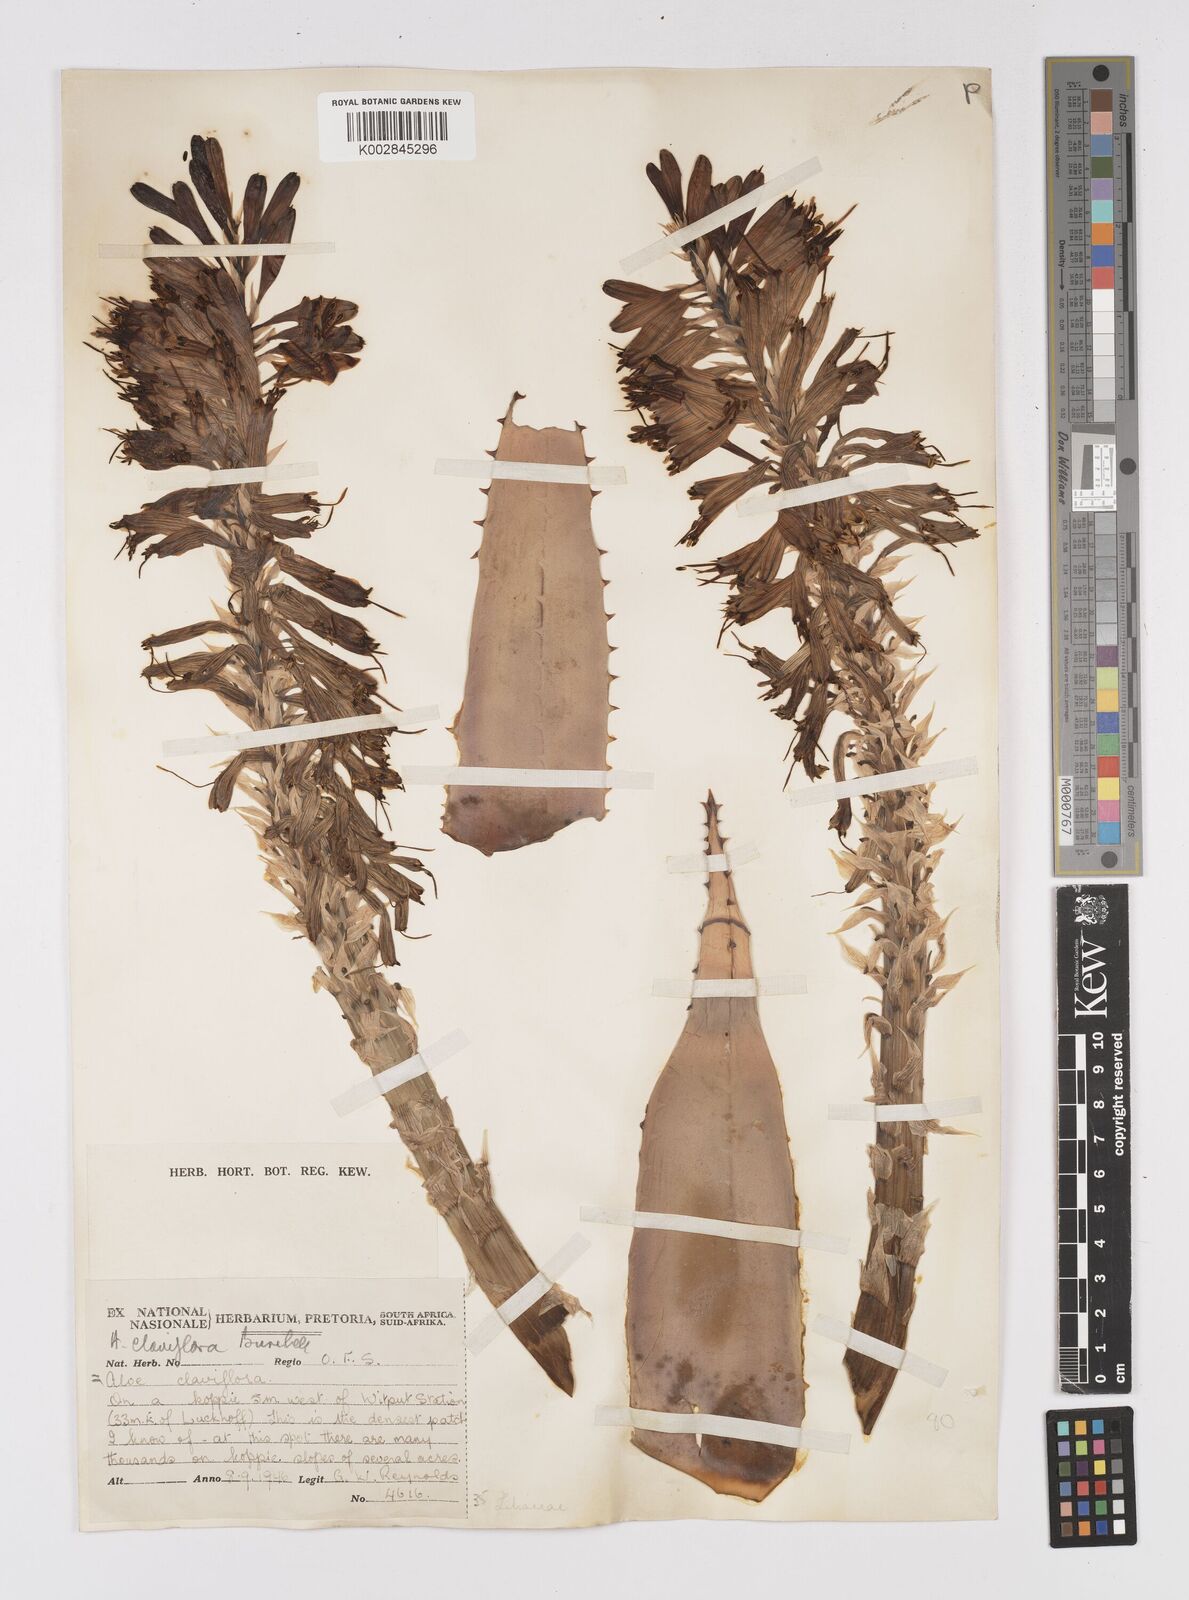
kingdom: Plantae
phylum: Tracheophyta
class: Liliopsida
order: Asparagales
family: Asphodelaceae
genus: Aloe
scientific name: Aloe claviflora
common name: Cannon aloe
